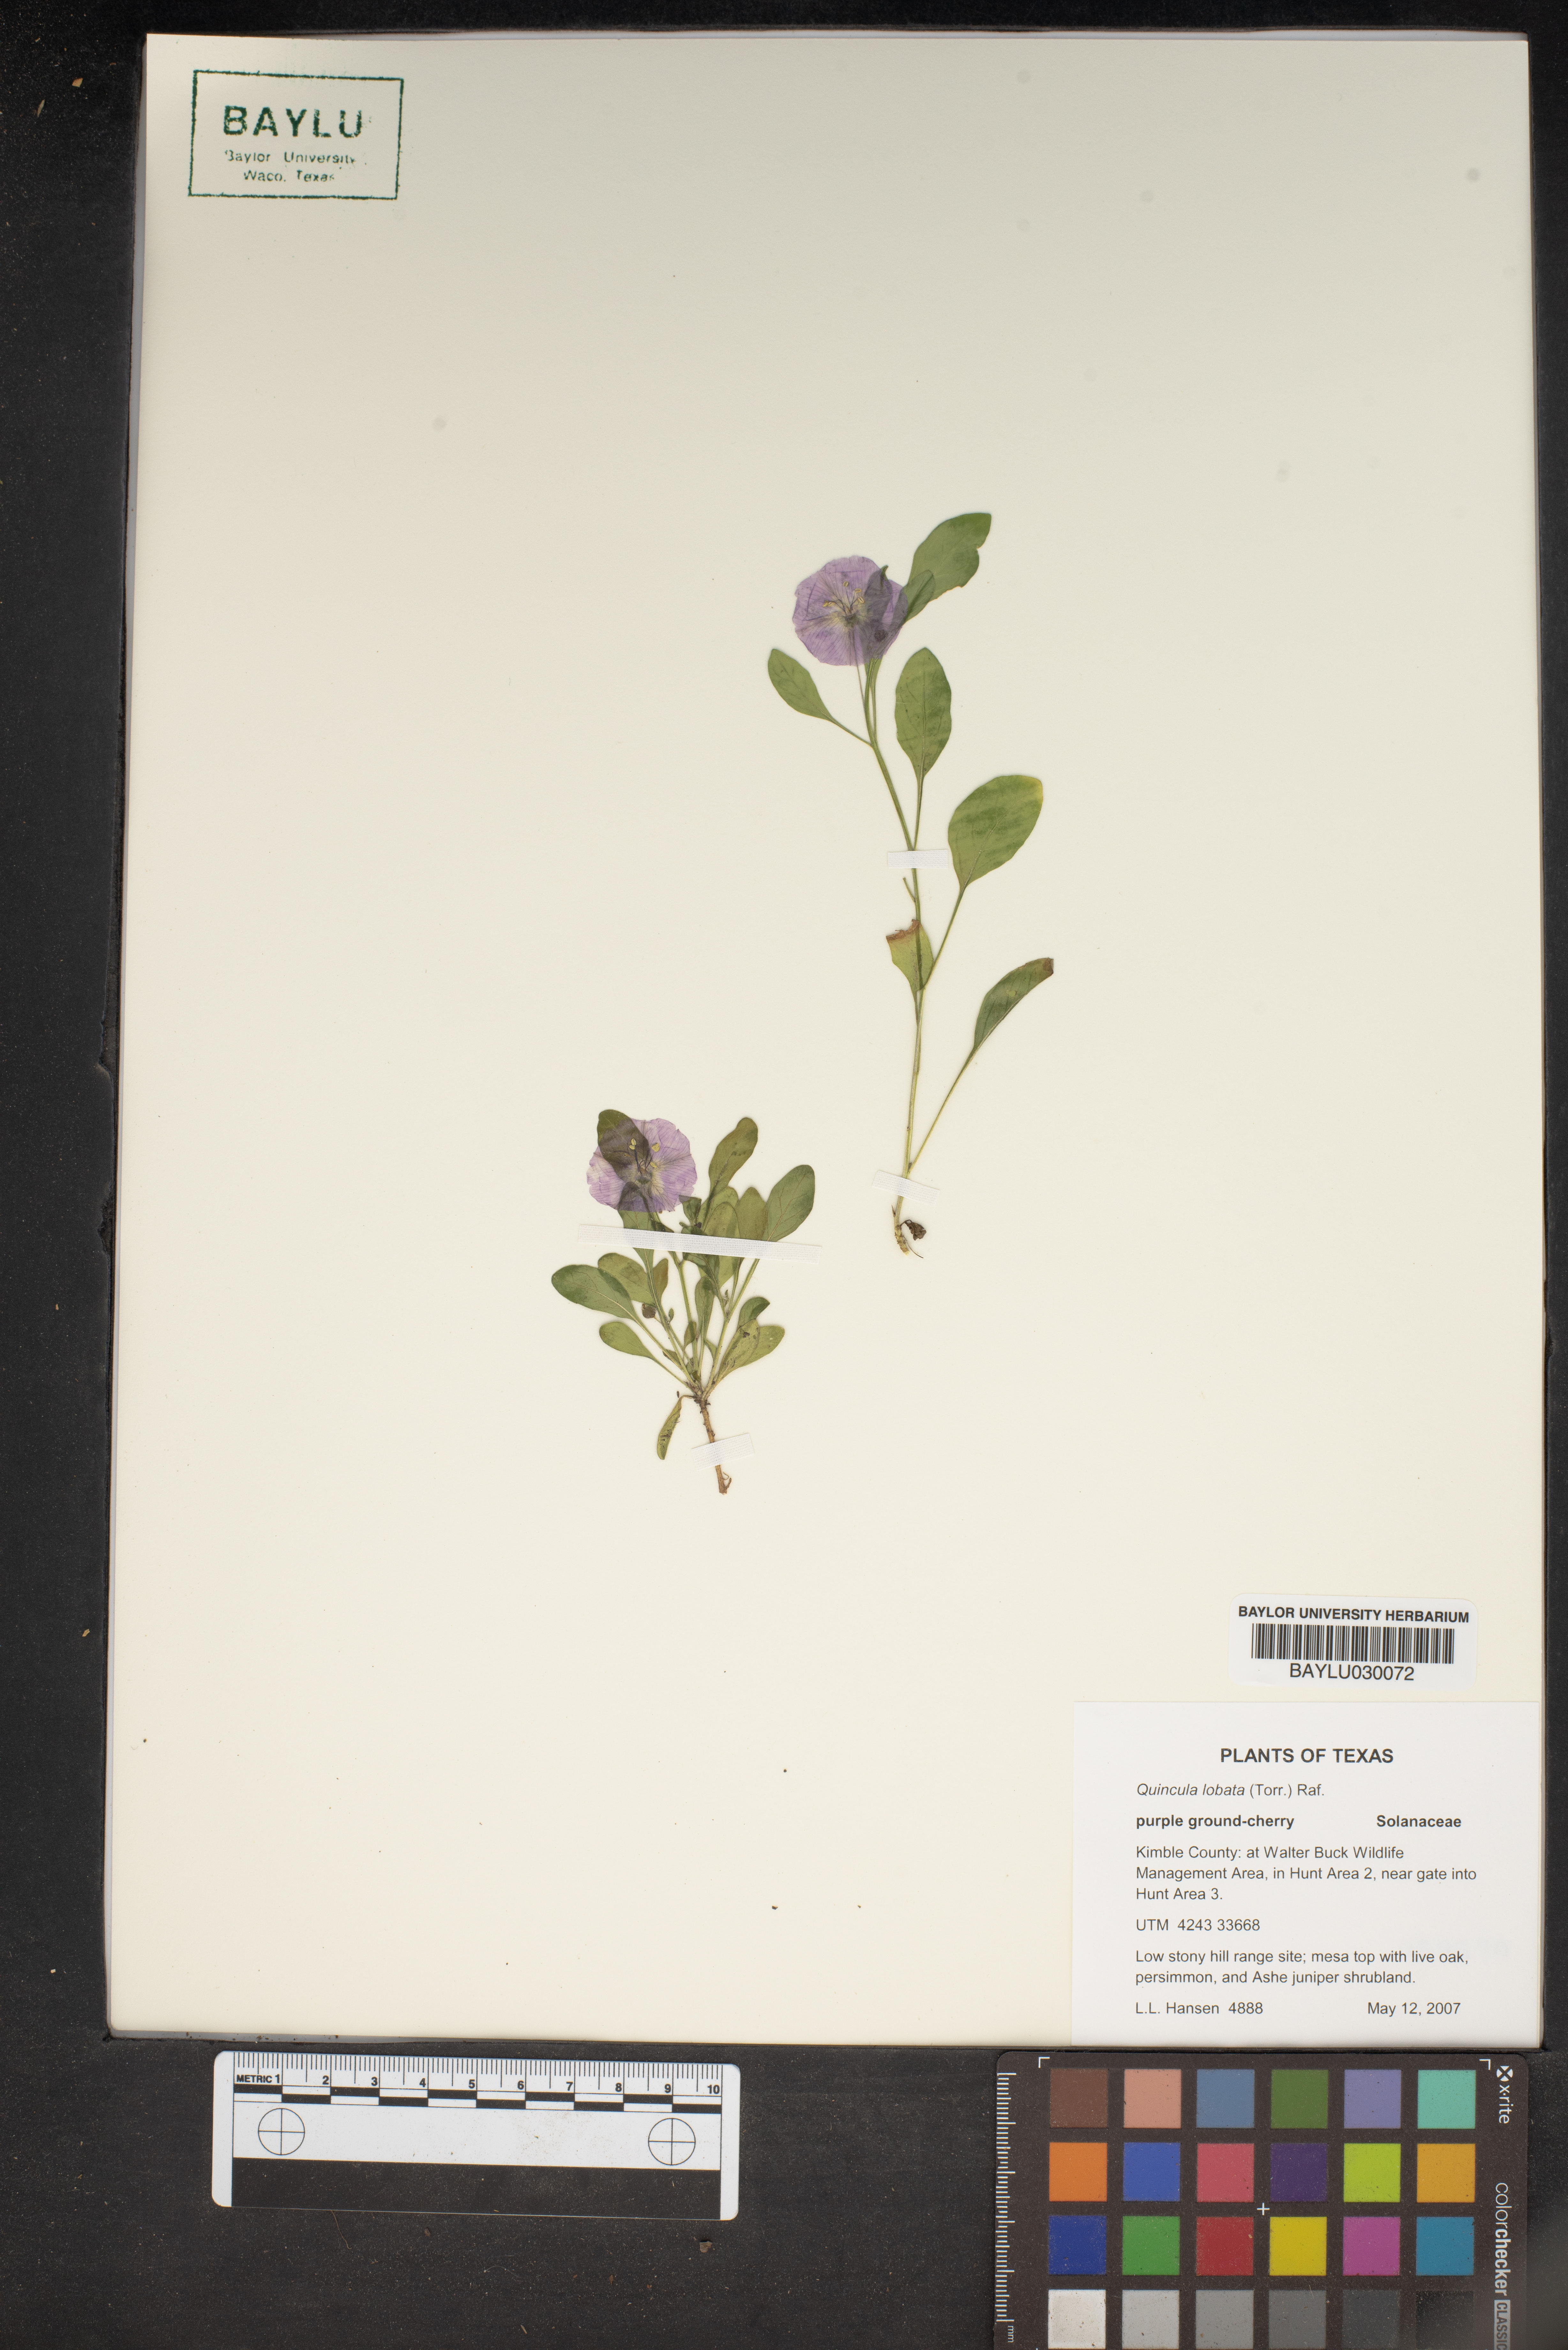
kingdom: Plantae
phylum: Tracheophyta
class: Magnoliopsida
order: Solanales
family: Solanaceae
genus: Quincula
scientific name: Quincula lobata
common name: Purple-ground-cherry
